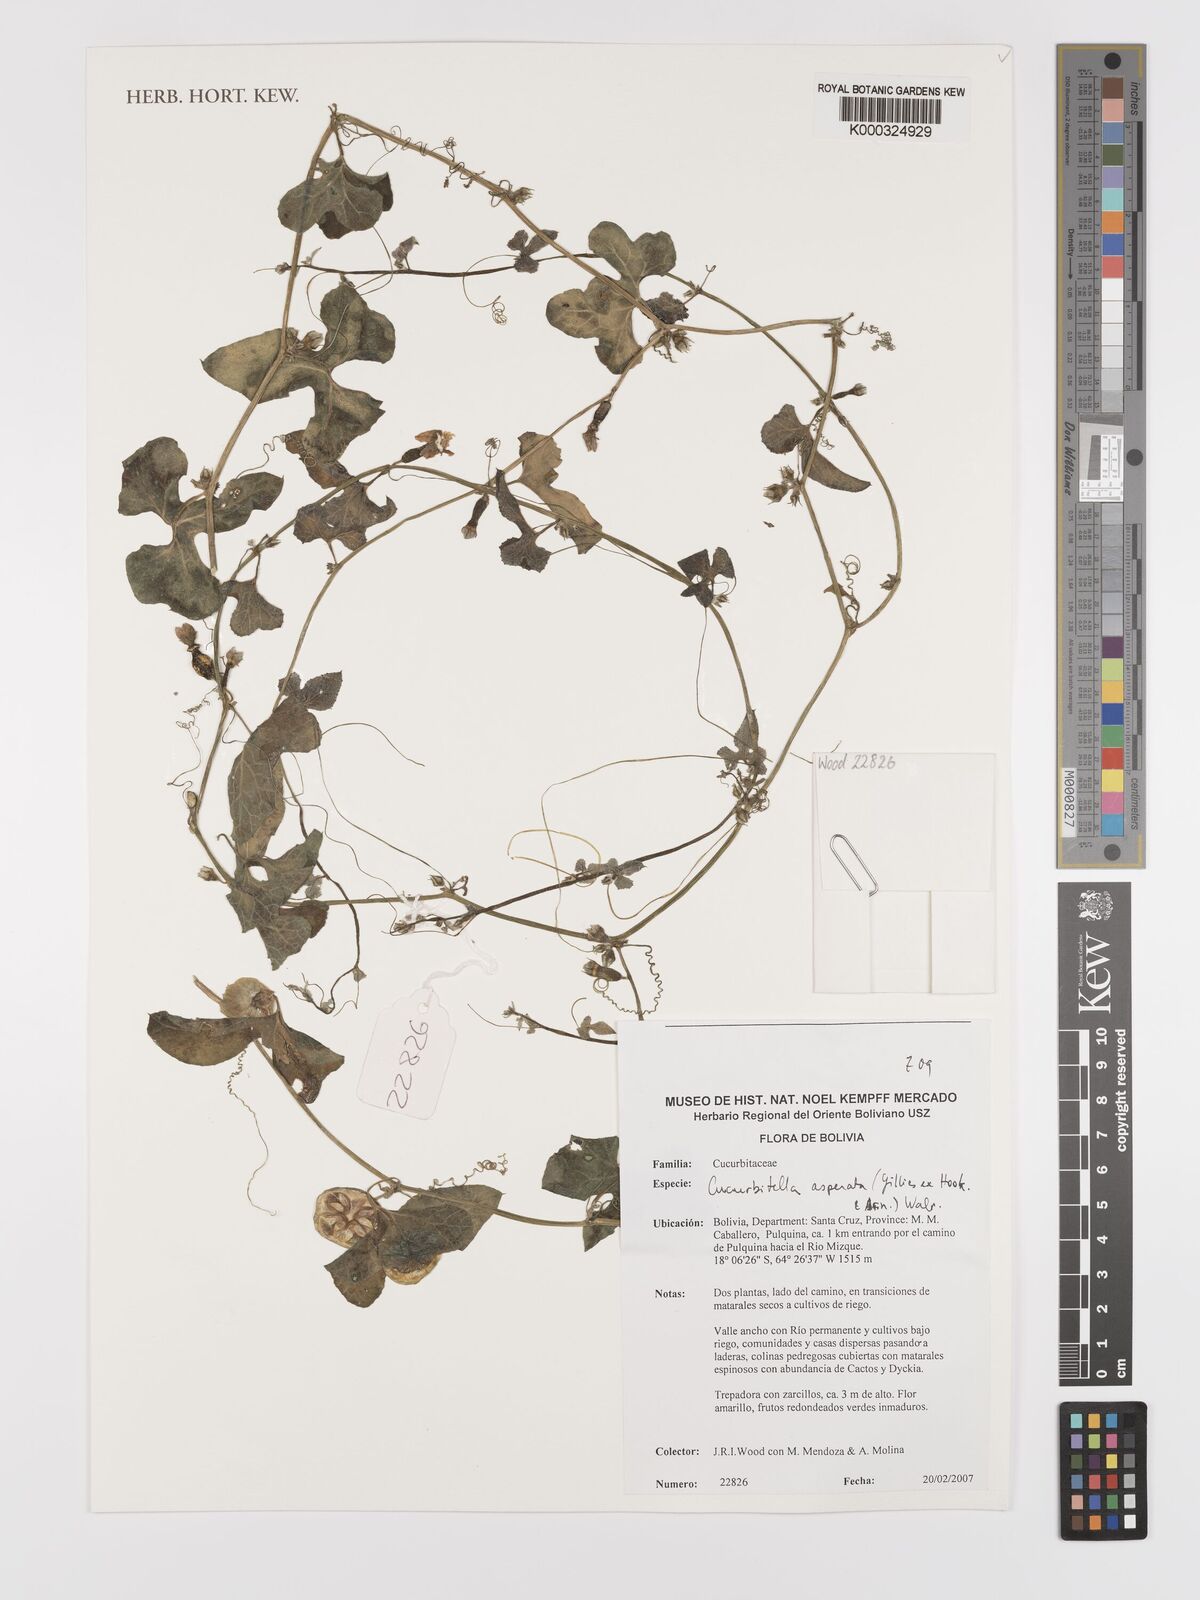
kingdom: Plantae
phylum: Tracheophyta
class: Magnoliopsida
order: Cucurbitales
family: Cucurbitaceae
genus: Cucurbitella
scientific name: Cucurbitella asperata
